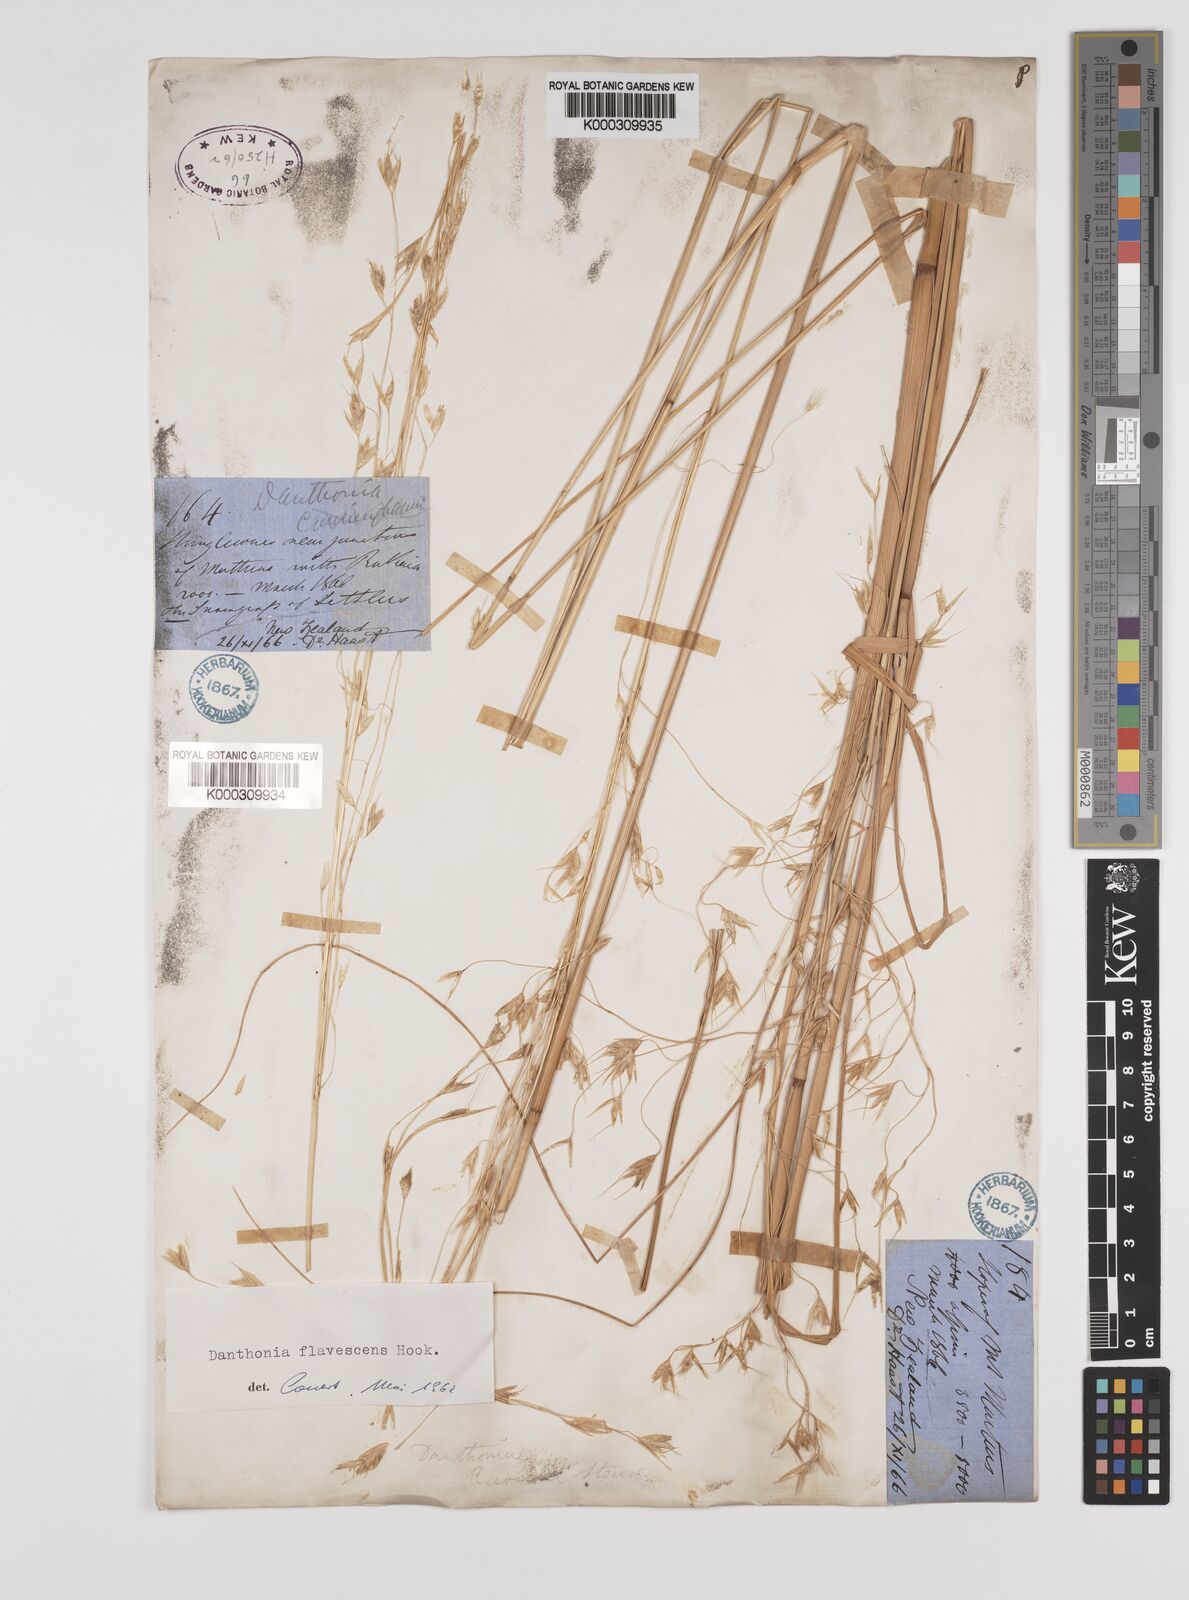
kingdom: Plantae
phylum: Tracheophyta
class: Liliopsida
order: Poales
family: Poaceae
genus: Chionochloa
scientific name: Chionochloa rigida
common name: Narrow leaved snow tussock
